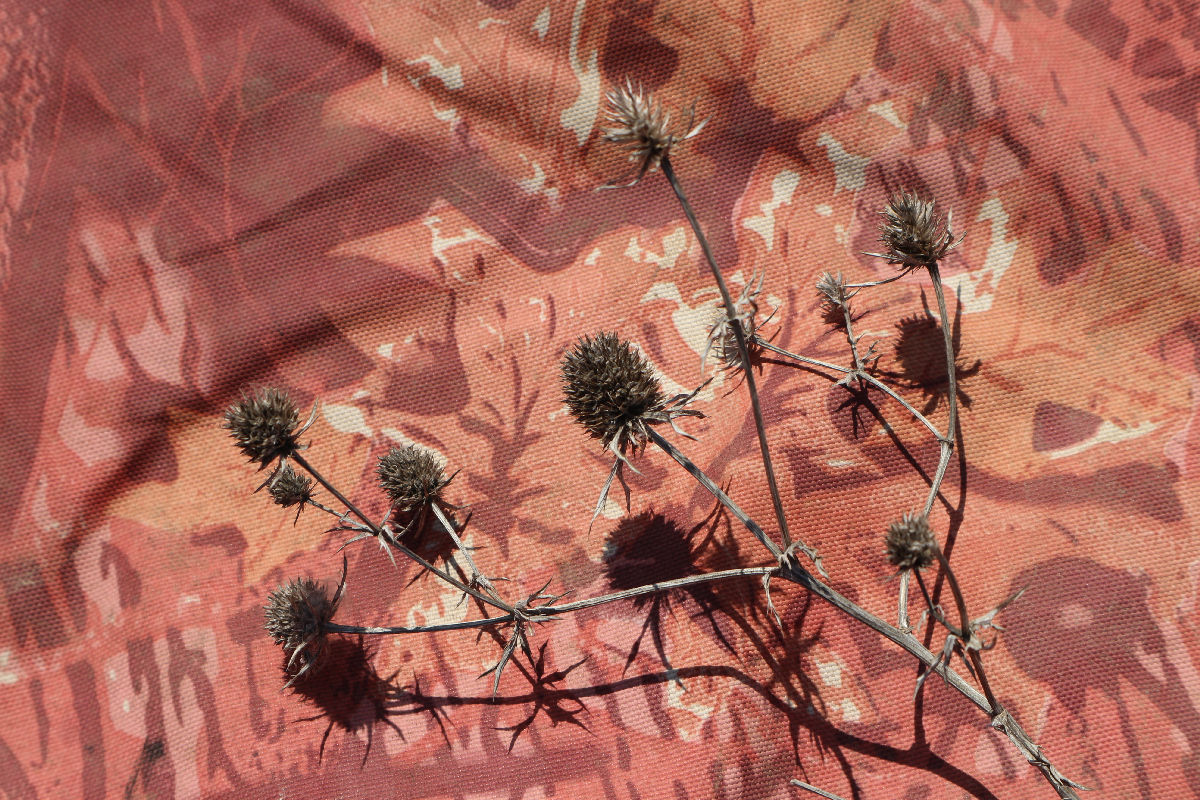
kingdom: Plantae
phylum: Tracheophyta
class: Magnoliopsida
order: Apiales
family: Apiaceae
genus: Eryngium
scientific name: Eryngium planum
